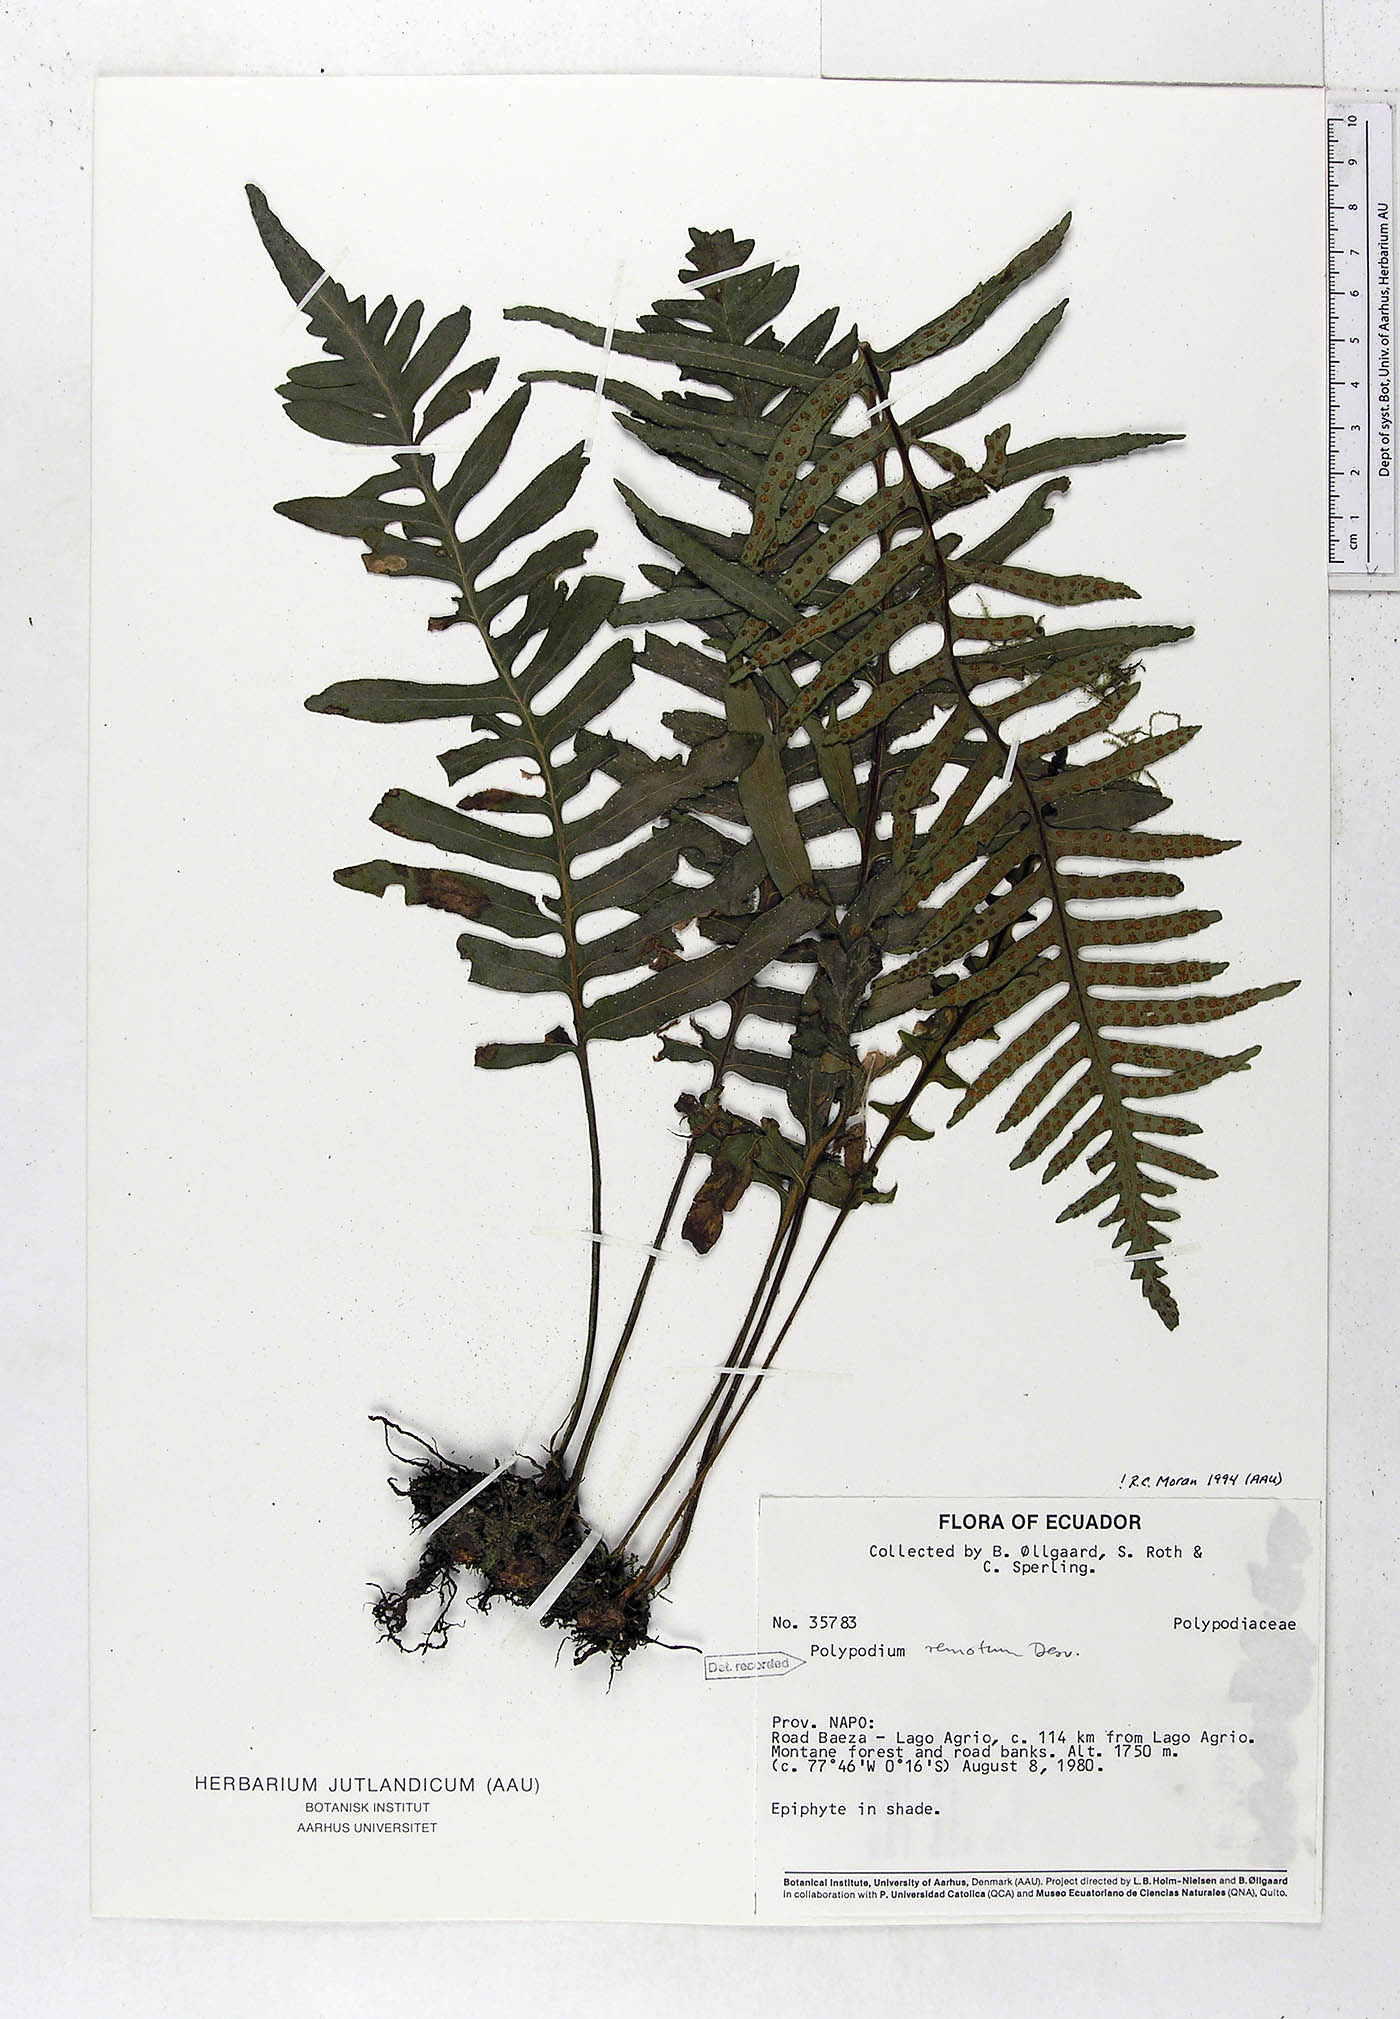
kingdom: Plantae
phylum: Tracheophyta
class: Polypodiopsida
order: Polypodiales
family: Polypodiaceae
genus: Pleopeltis
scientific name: Pleopeltis remota
